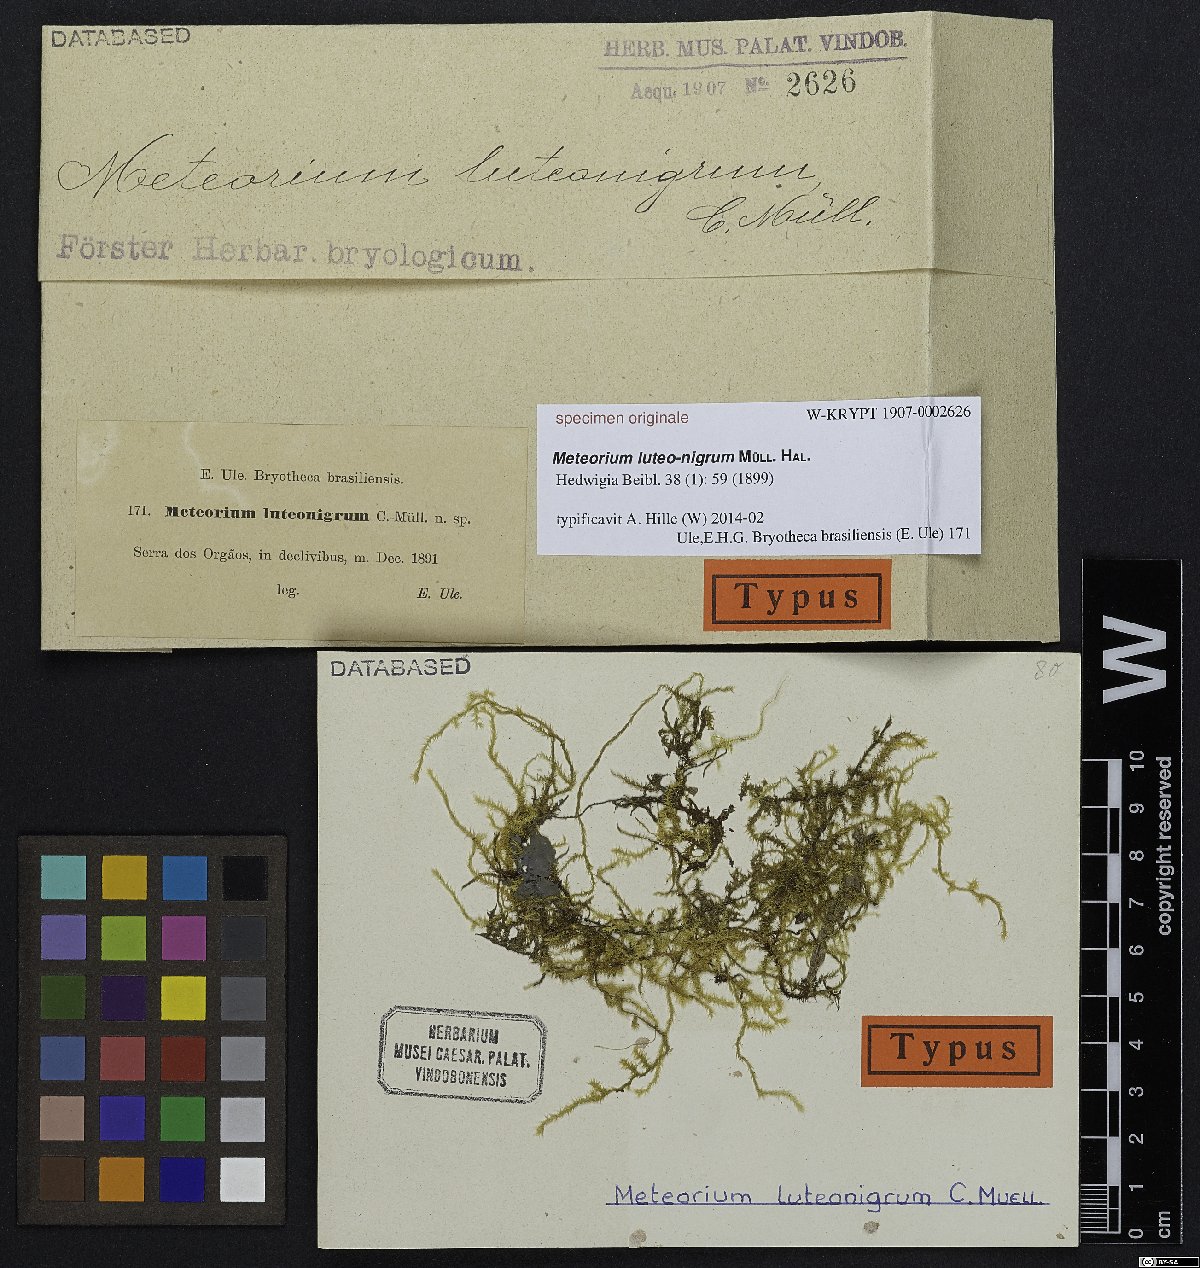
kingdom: Plantae
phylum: Bryophyta
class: Bryopsida
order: Hypnales
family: Meteoriaceae
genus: Meteorium
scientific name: Meteorium
